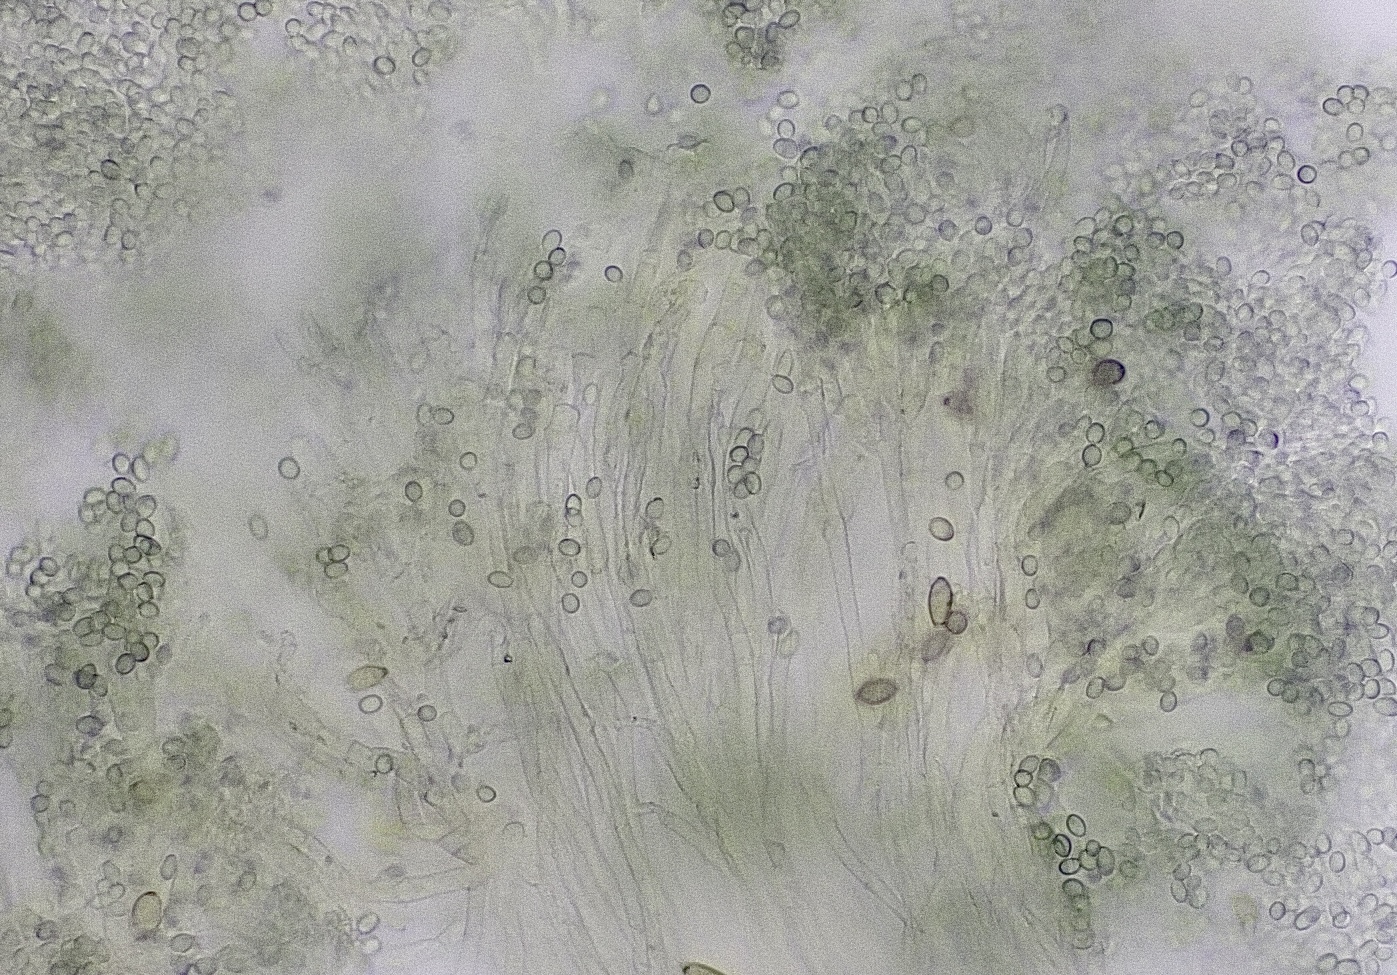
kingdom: Fungi
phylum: Ascomycota
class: Eurotiomycetes
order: Eurotiales
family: Aspergillaceae
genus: Penicillium
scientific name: Penicillium
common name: penselskimmel
